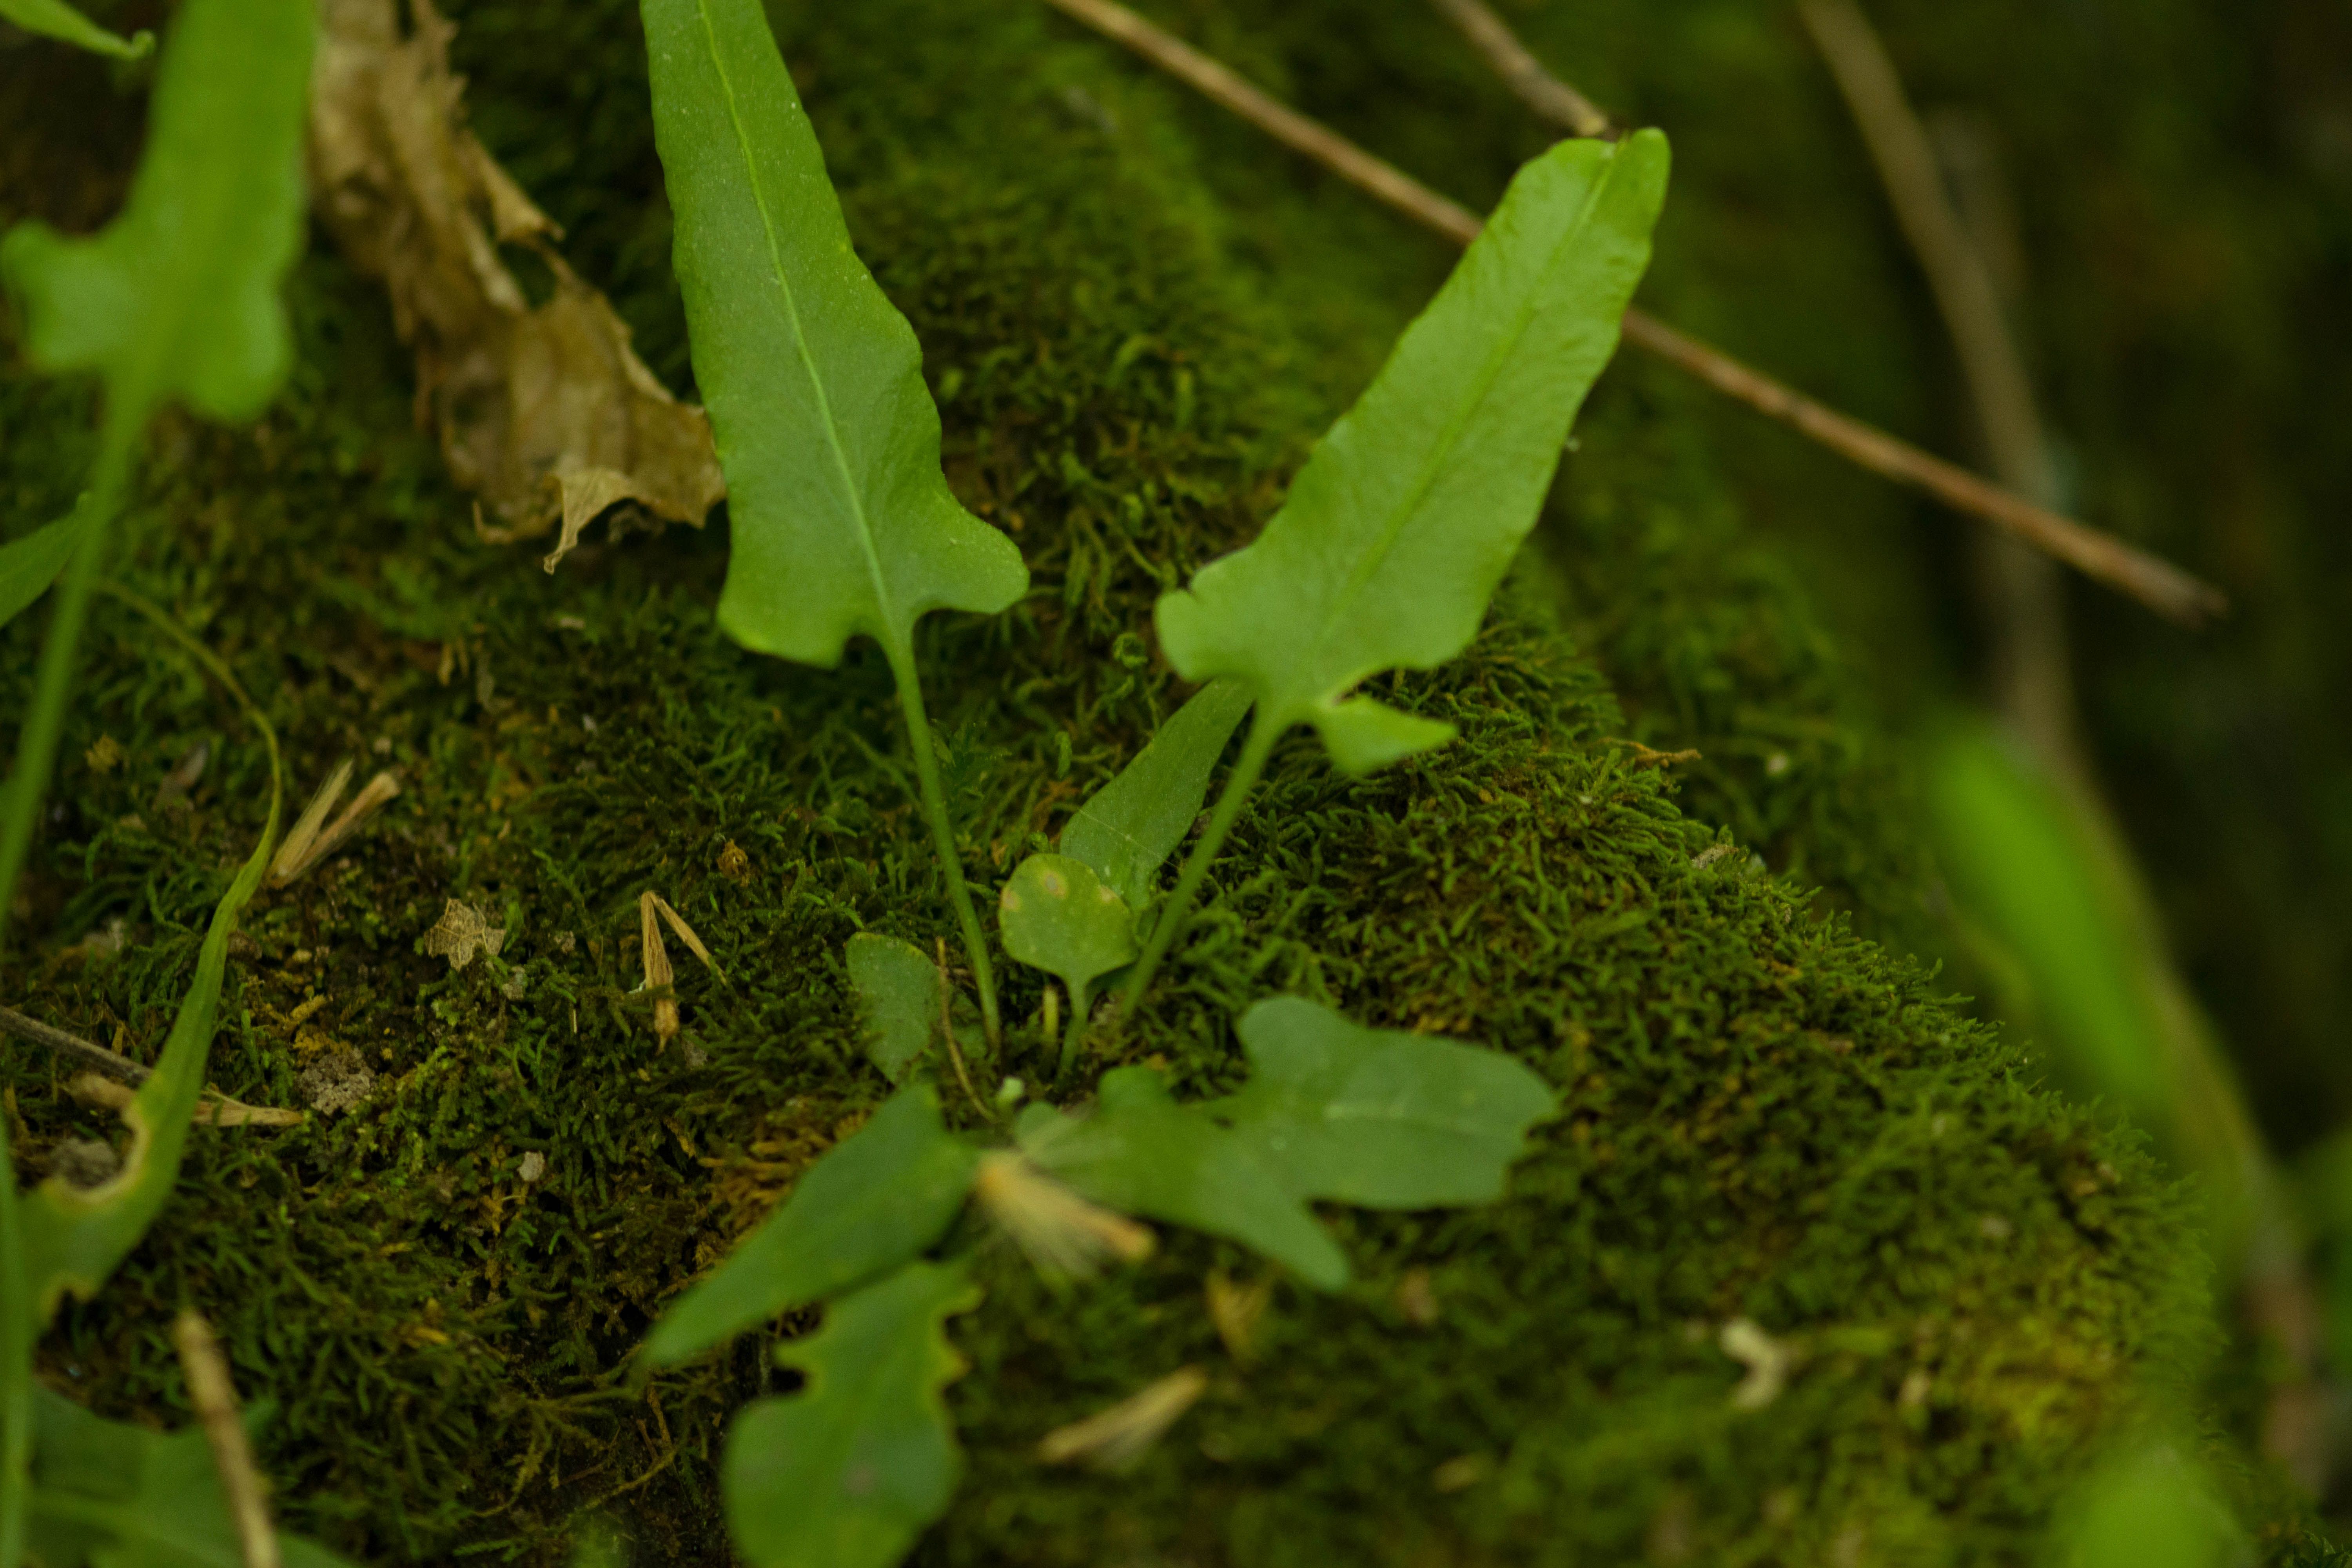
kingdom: Plantae
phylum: Tracheophyta
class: Polypodiopsida
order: Polypodiales
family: Aspleniaceae
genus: Asplenium
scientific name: Asplenium rhizophyllum
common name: Walking fern
